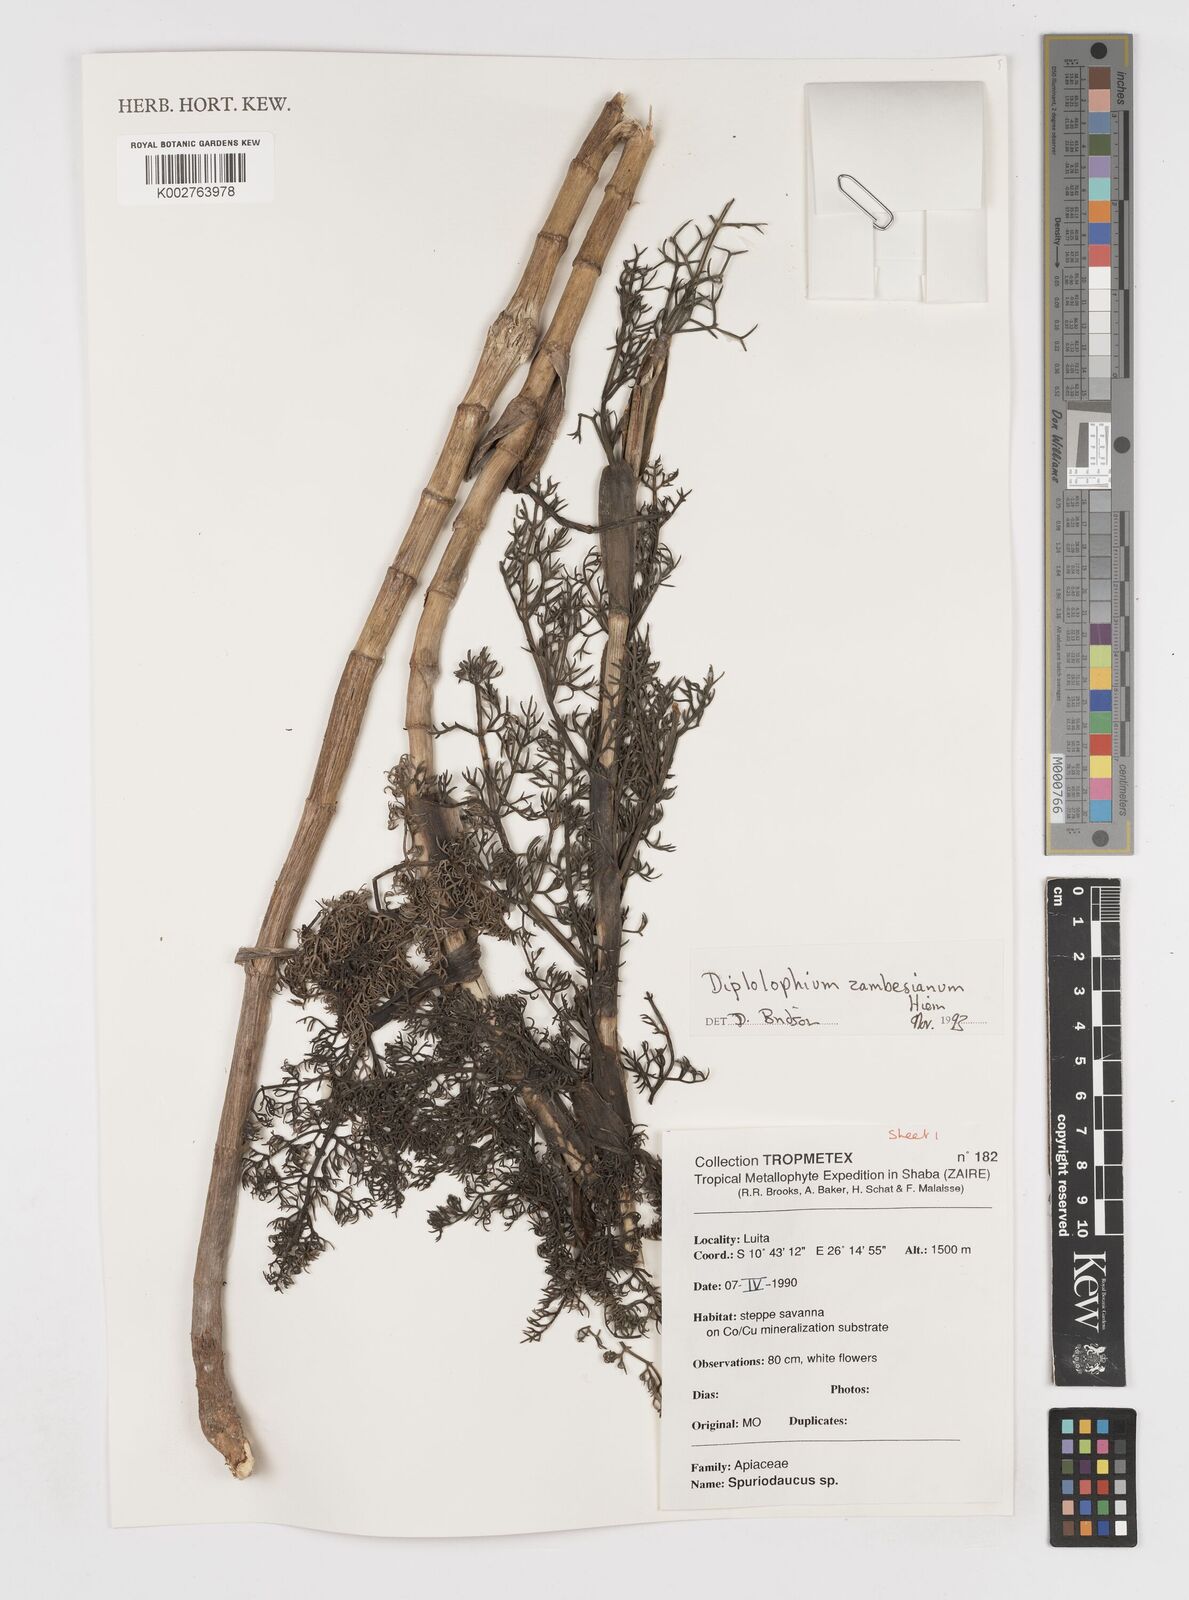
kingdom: Plantae
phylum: Tracheophyta
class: Magnoliopsida
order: Apiales
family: Apiaceae
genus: Diplolophium
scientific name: Diplolophium zambesianum
